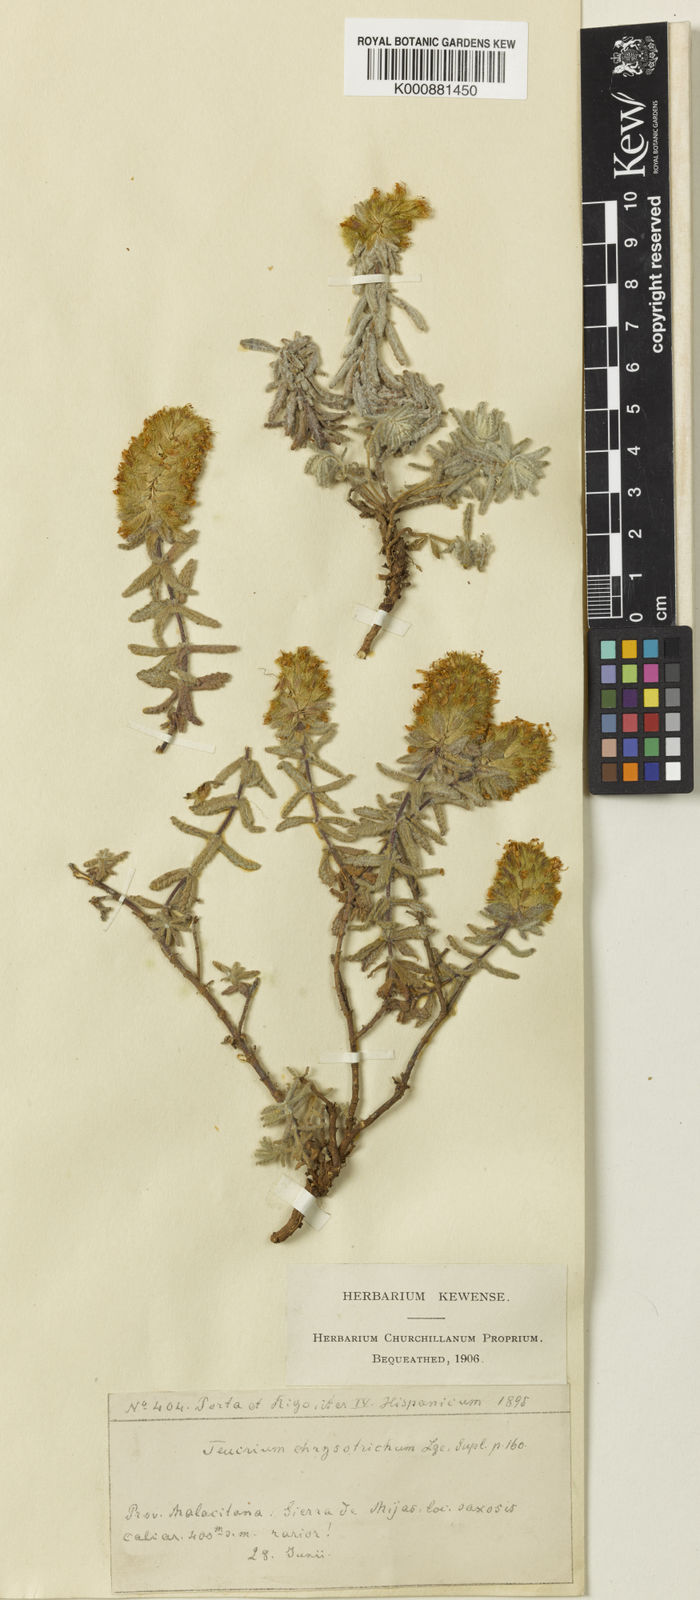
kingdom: Plantae
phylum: Tracheophyta
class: Magnoliopsida
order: Lamiales
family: Lamiaceae
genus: Teucrium
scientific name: Teucrium haenseleri
